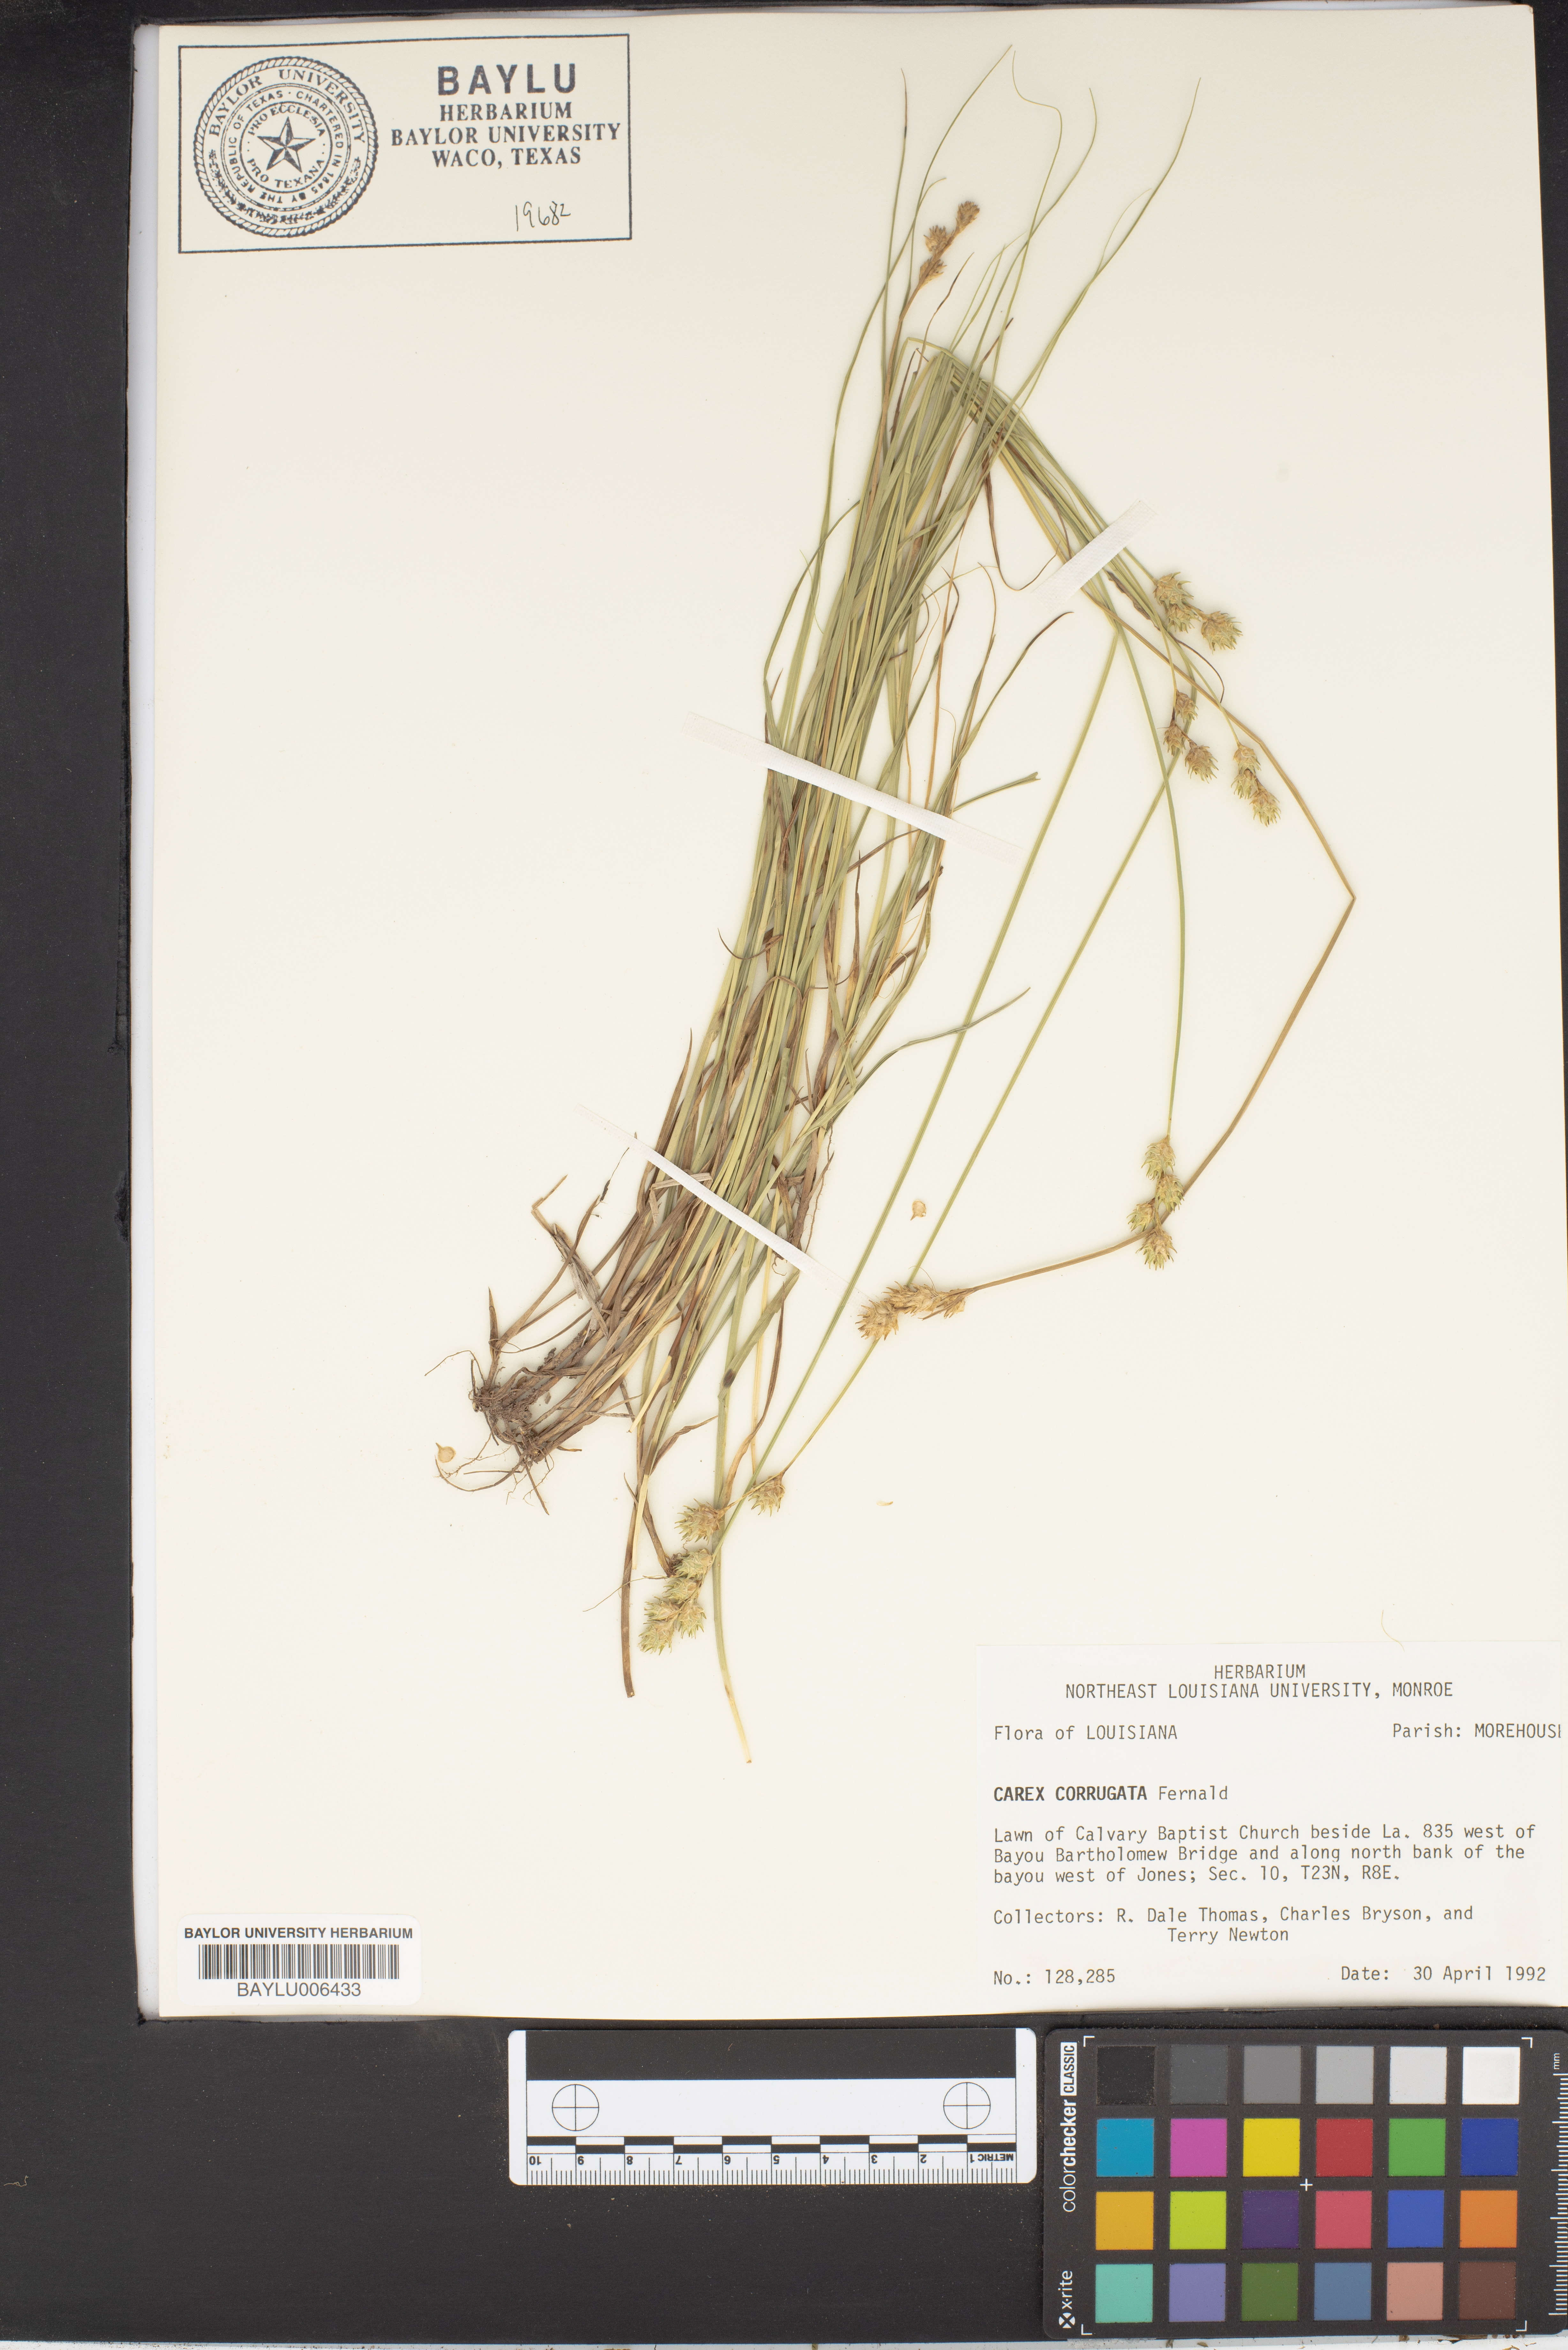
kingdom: Plantae
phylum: Tracheophyta
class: Liliopsida
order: Poales
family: Cyperaceae
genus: Carex
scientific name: Carex corrugata
